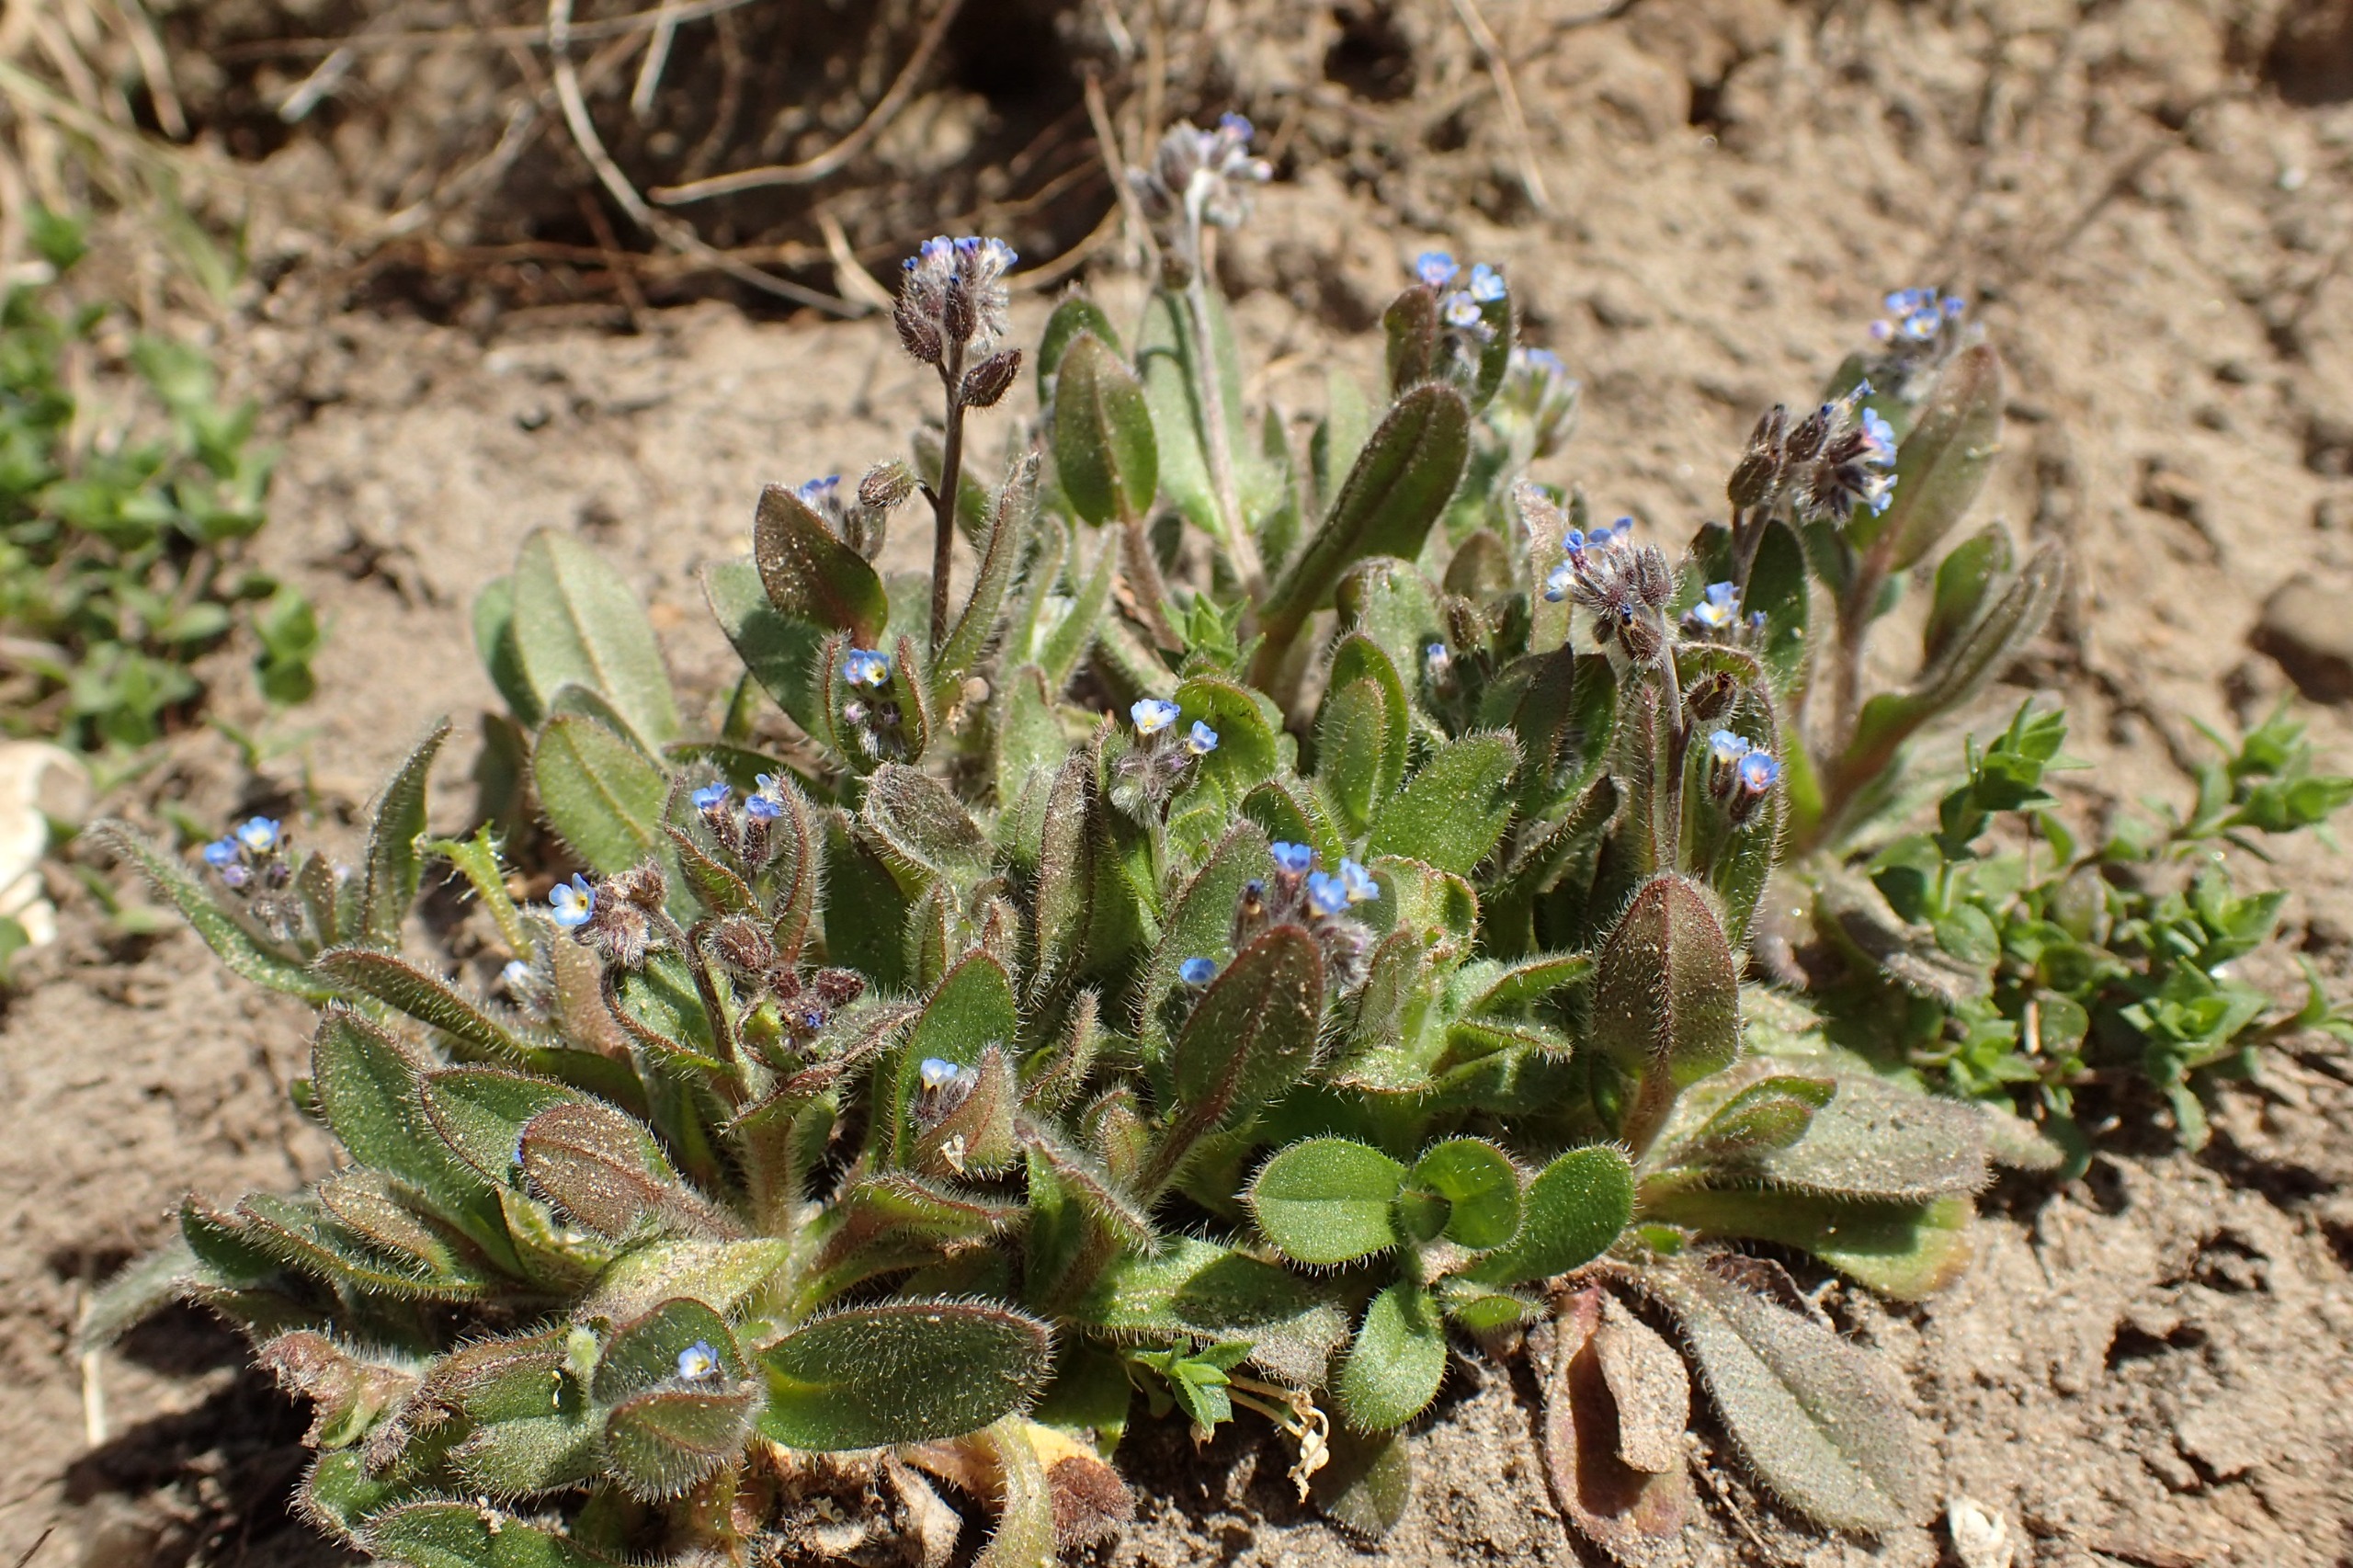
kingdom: Plantae
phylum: Tracheophyta
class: Magnoliopsida
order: Boraginales
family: Boraginaceae
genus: Myosotis
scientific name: Myosotis ramosissima
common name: Bakke-forglemmigej
